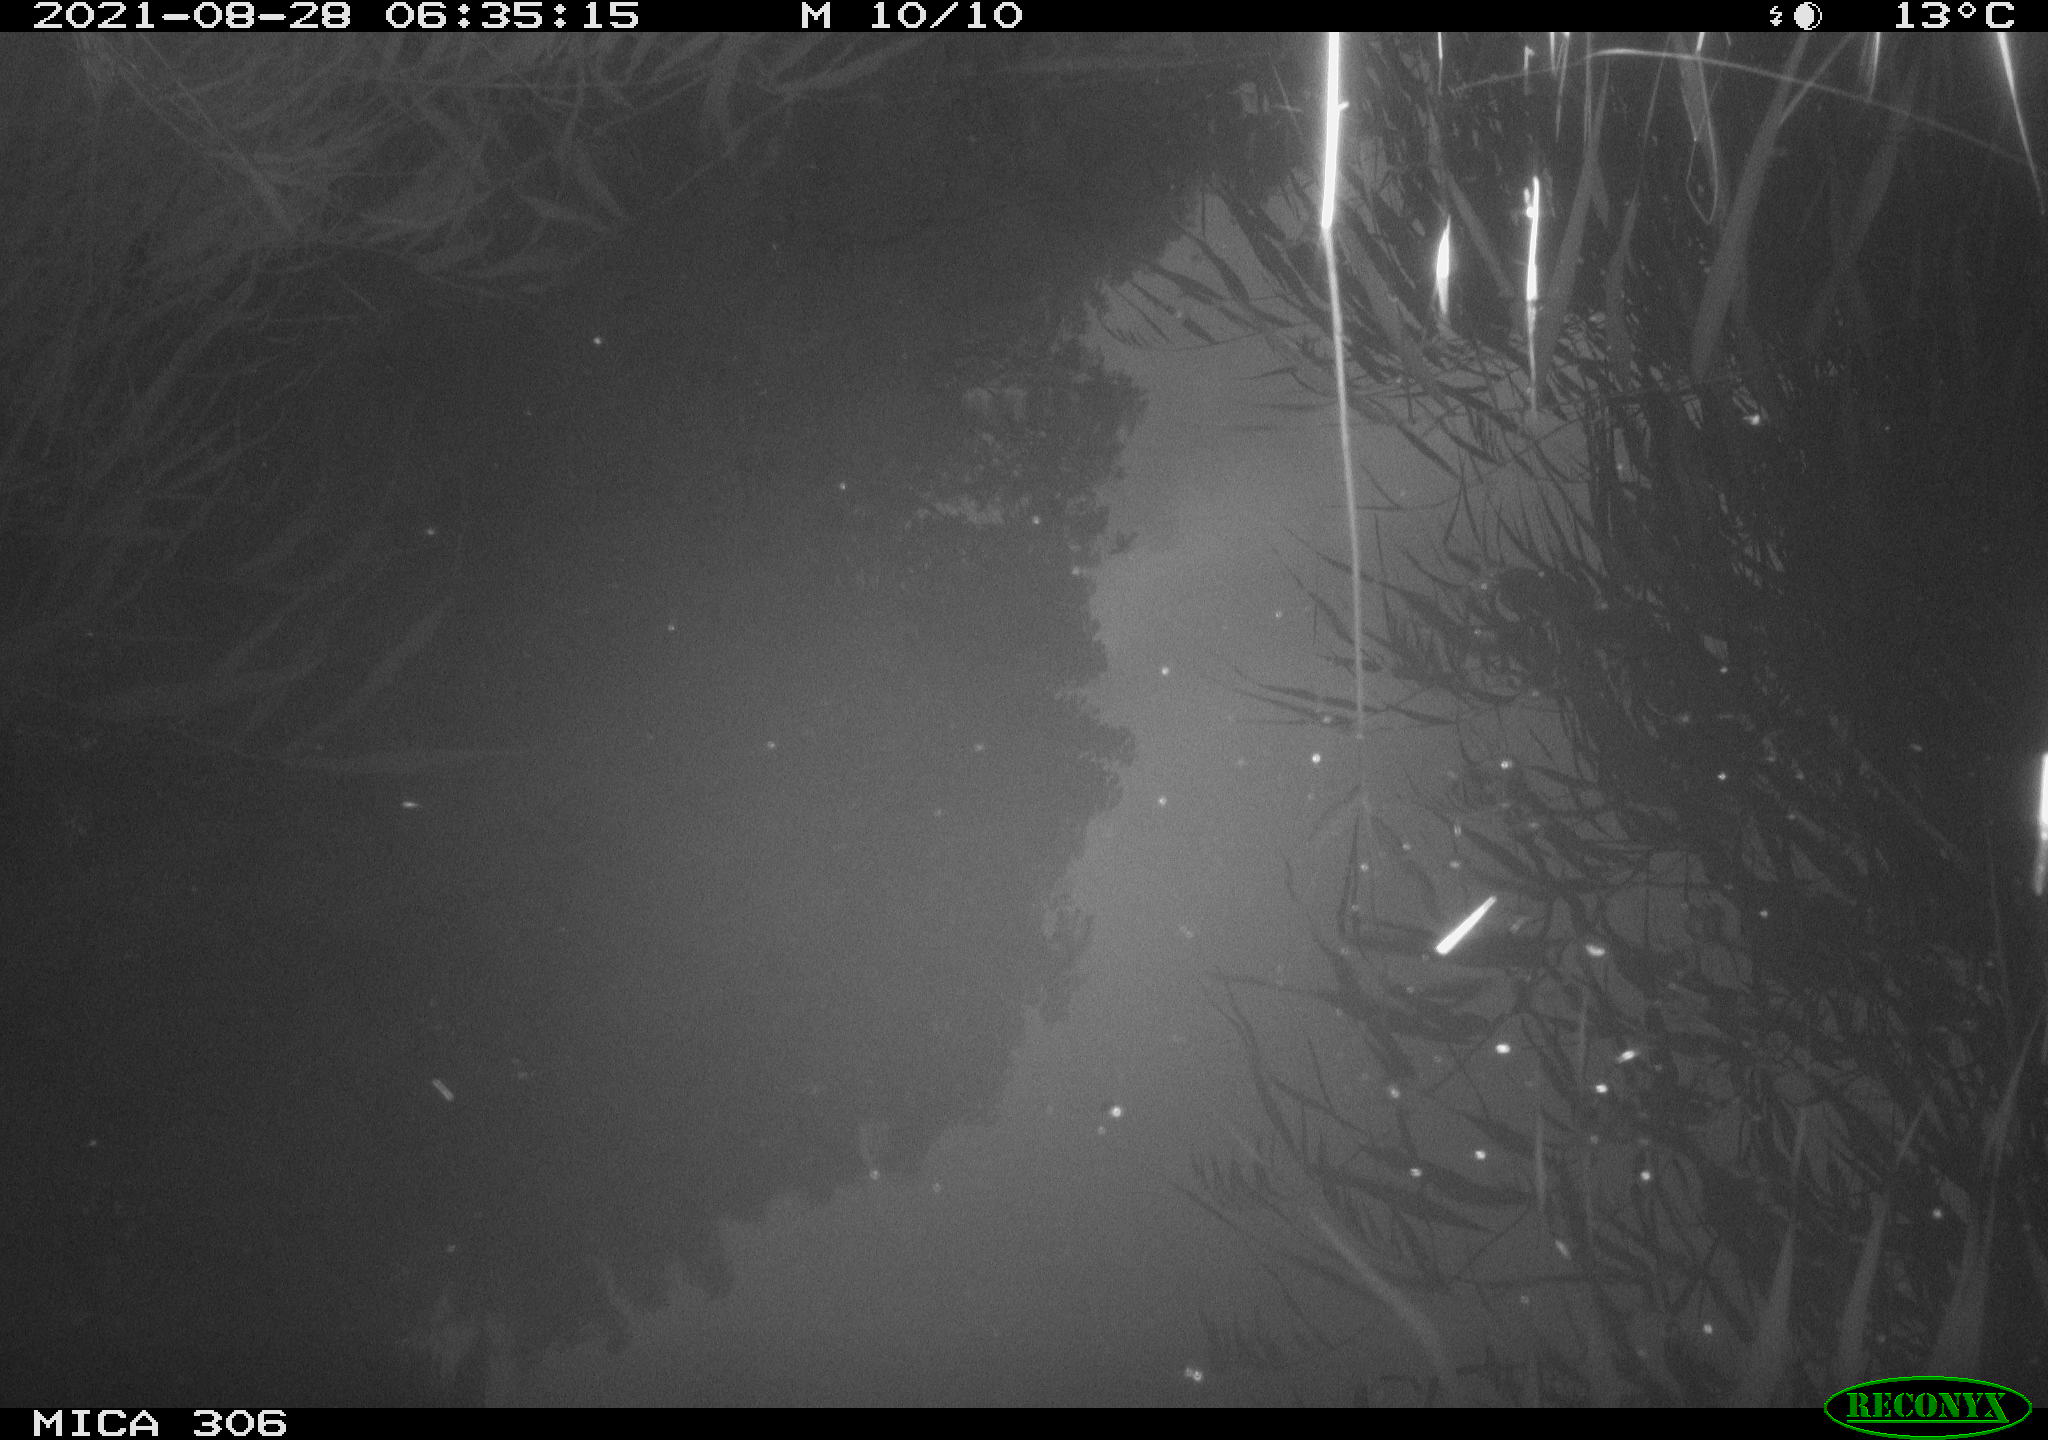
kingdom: Animalia
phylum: Chordata
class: Aves
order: Anseriformes
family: Anatidae
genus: Anas
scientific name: Anas platyrhynchos
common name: Mallard
